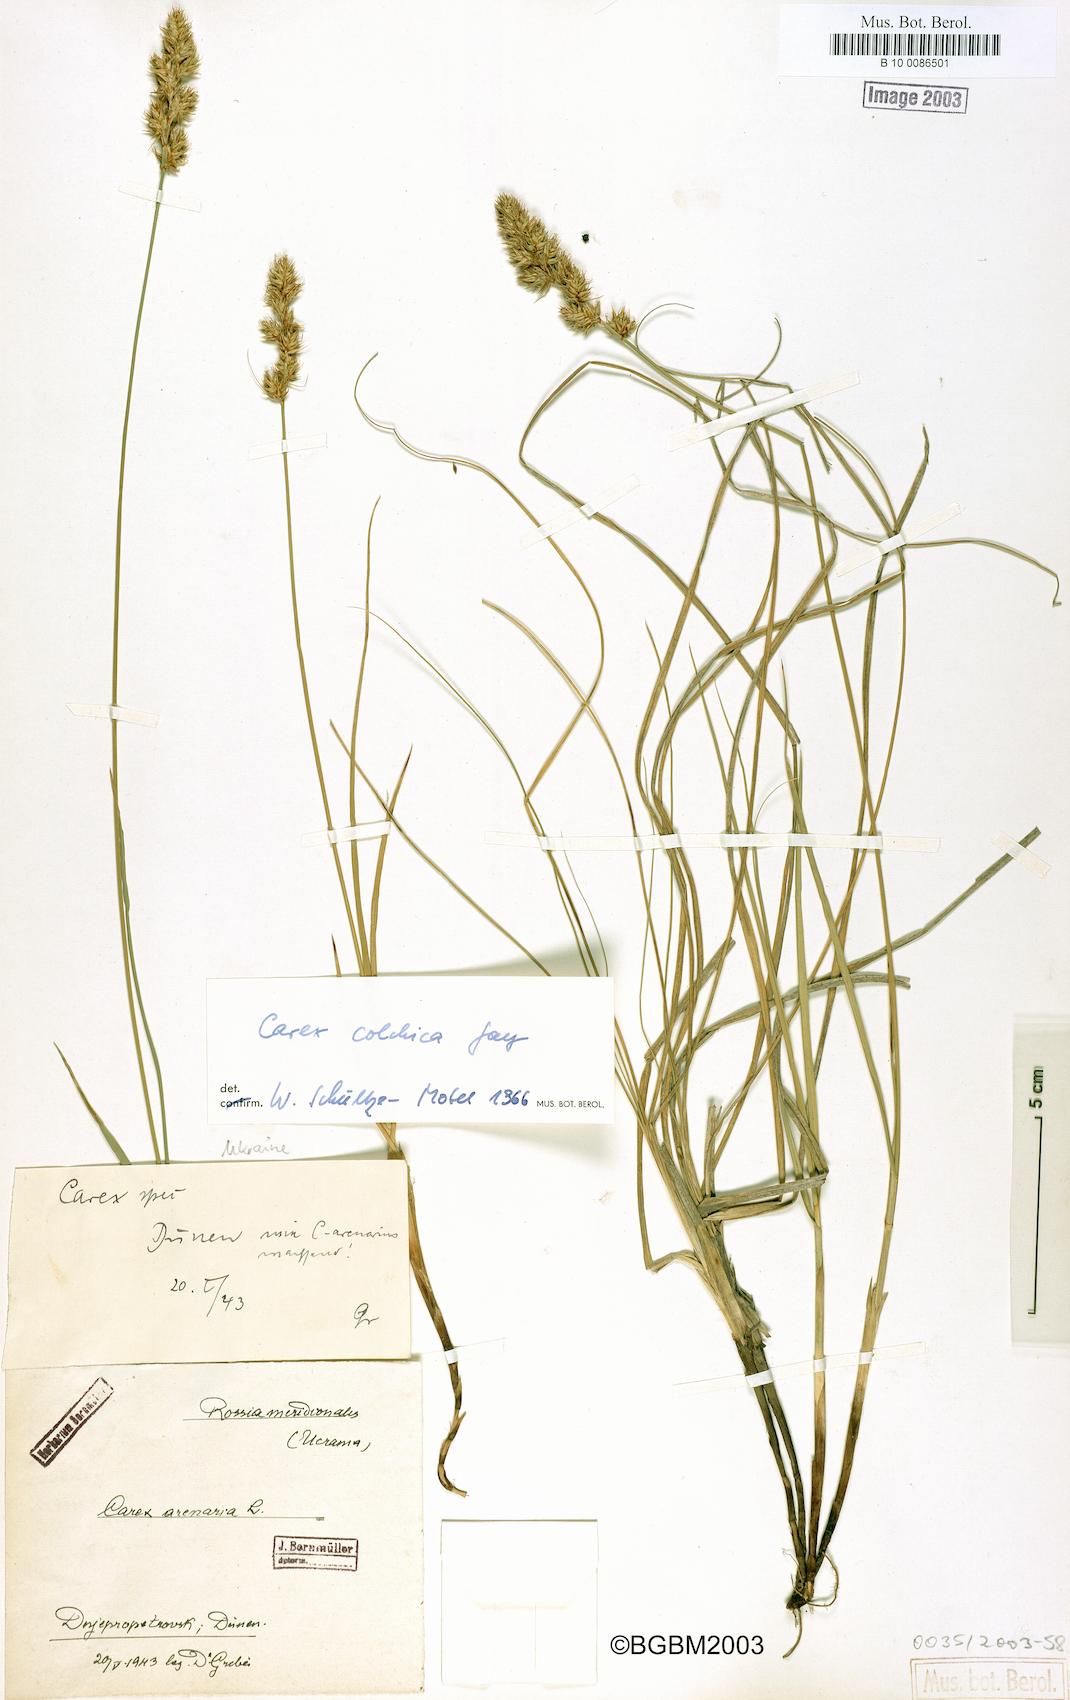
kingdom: Plantae
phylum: Tracheophyta
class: Liliopsida
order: Poales
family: Cyperaceae
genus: Carex
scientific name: Carex colchica
